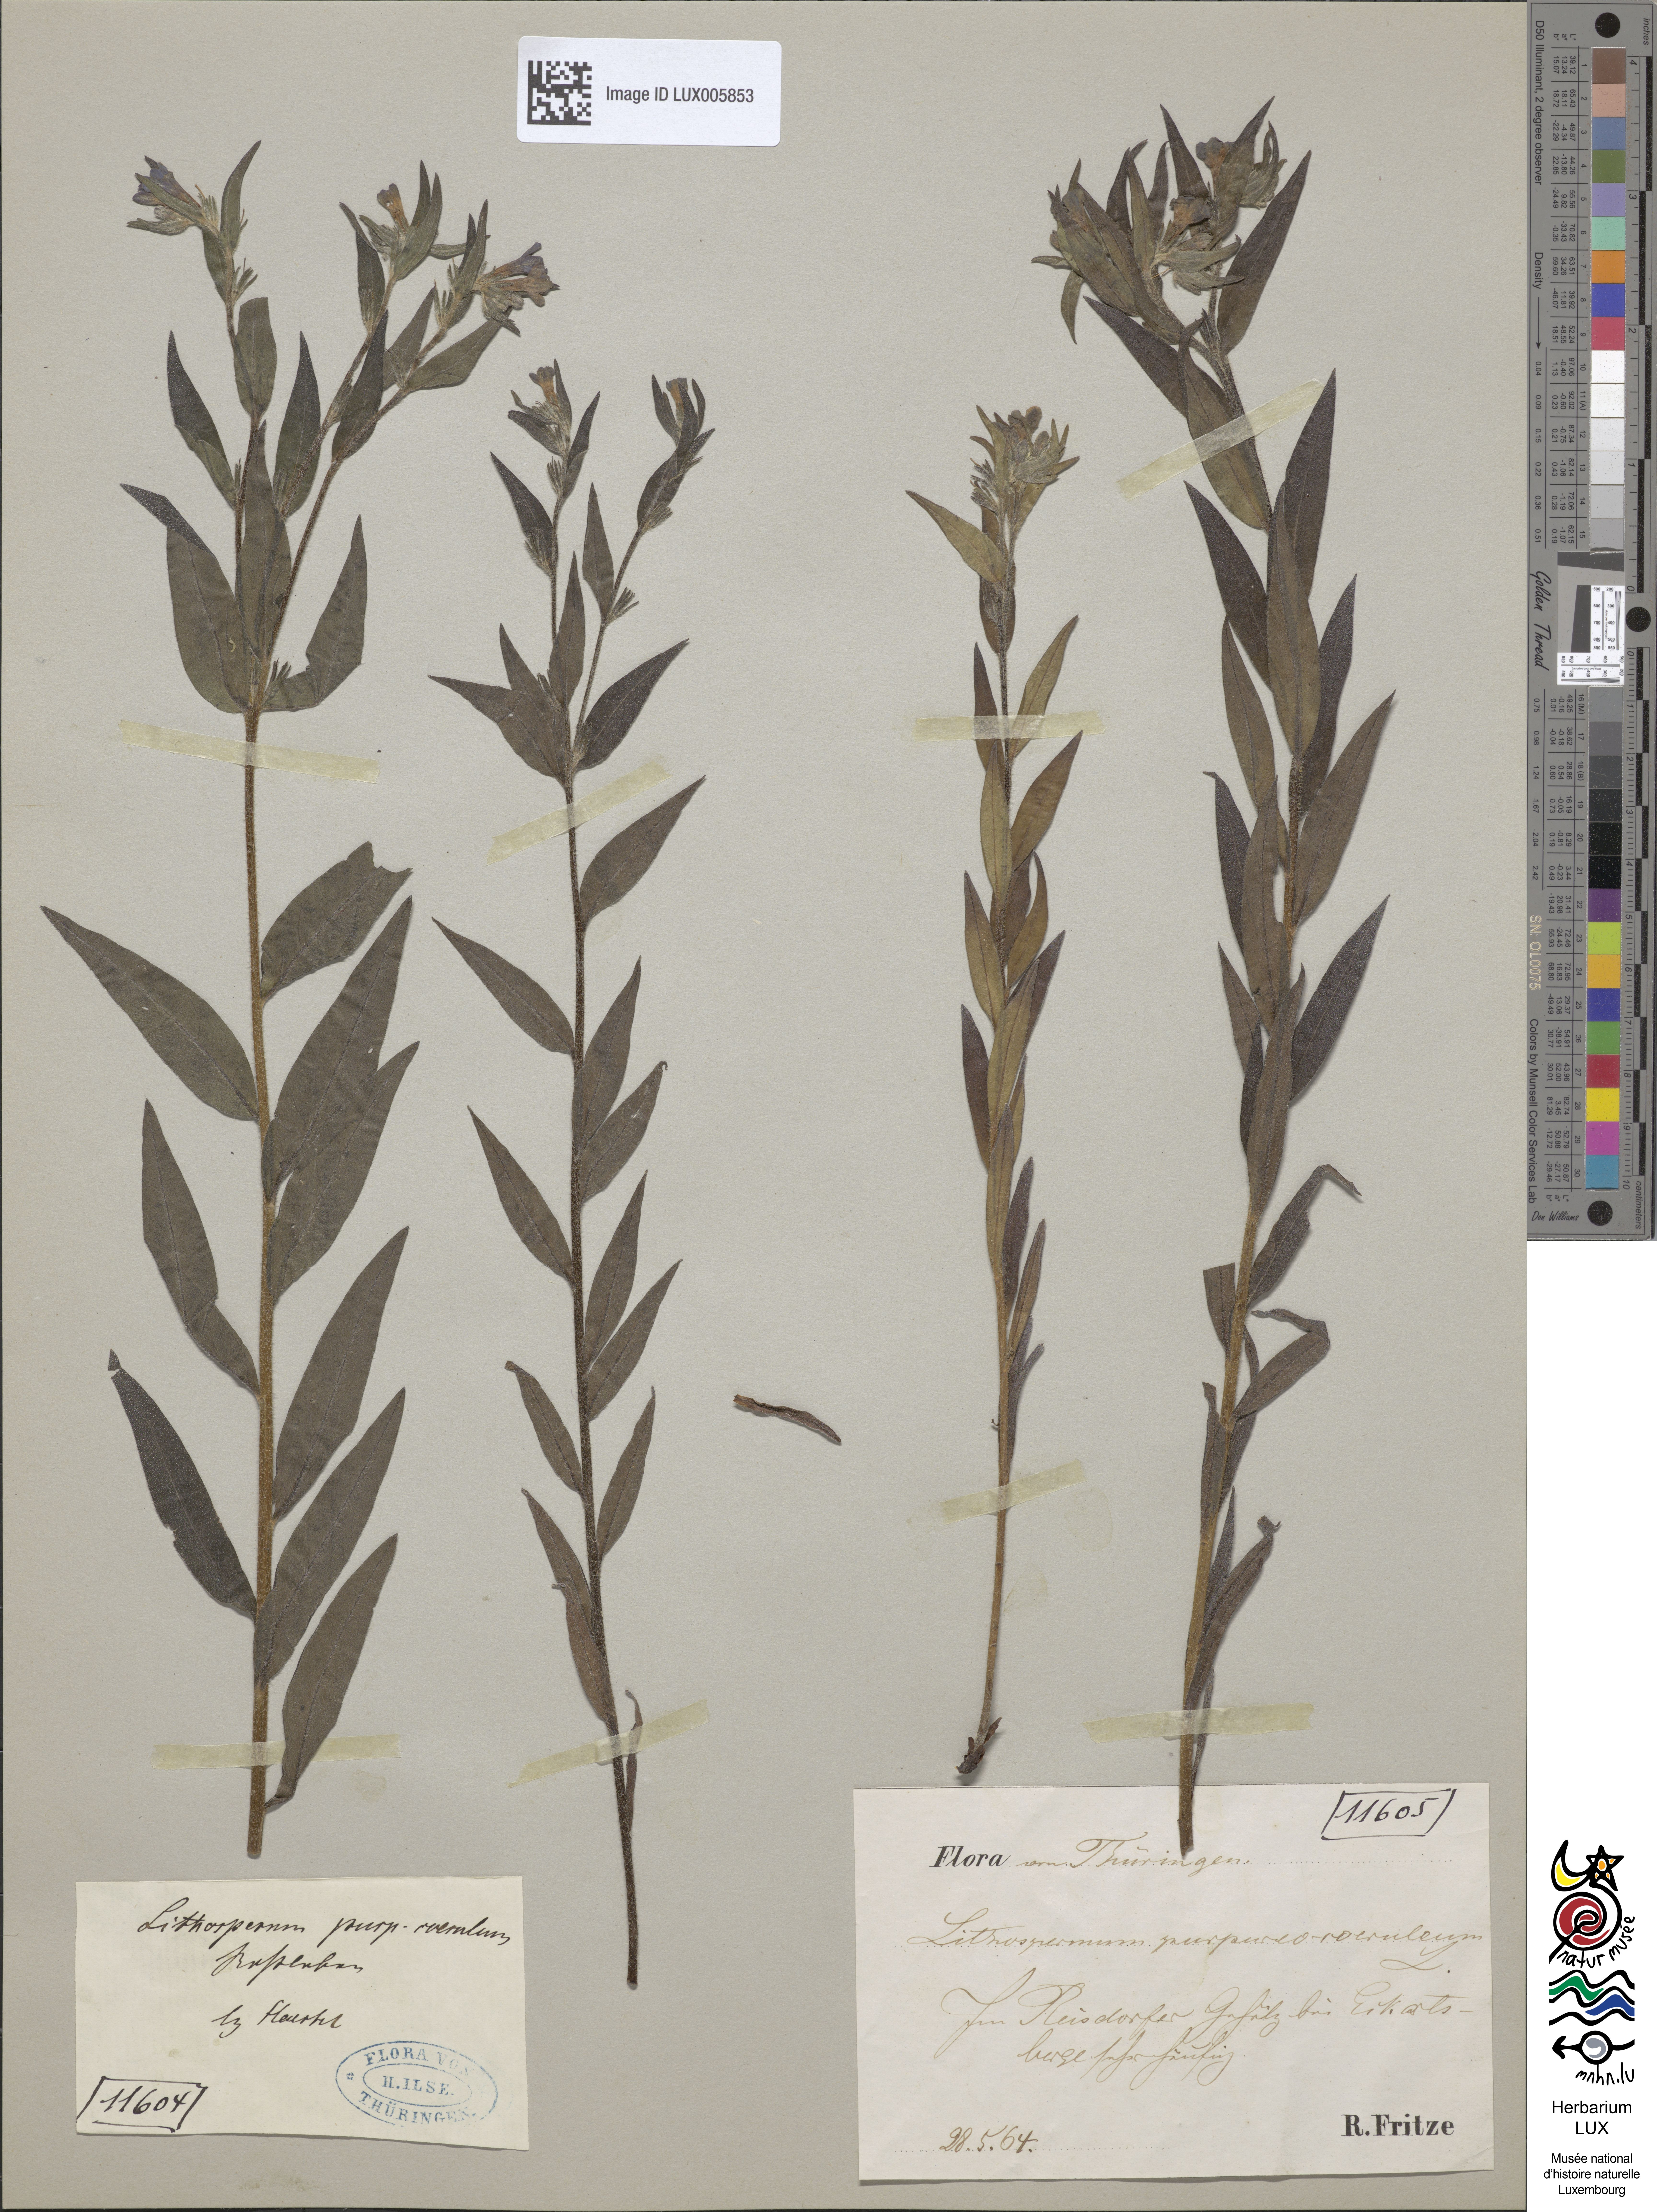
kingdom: Plantae
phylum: Tracheophyta
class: Magnoliopsida
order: Boraginales
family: Boraginaceae
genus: Aegonychon
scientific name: Aegonychon purpurocaeruleum
